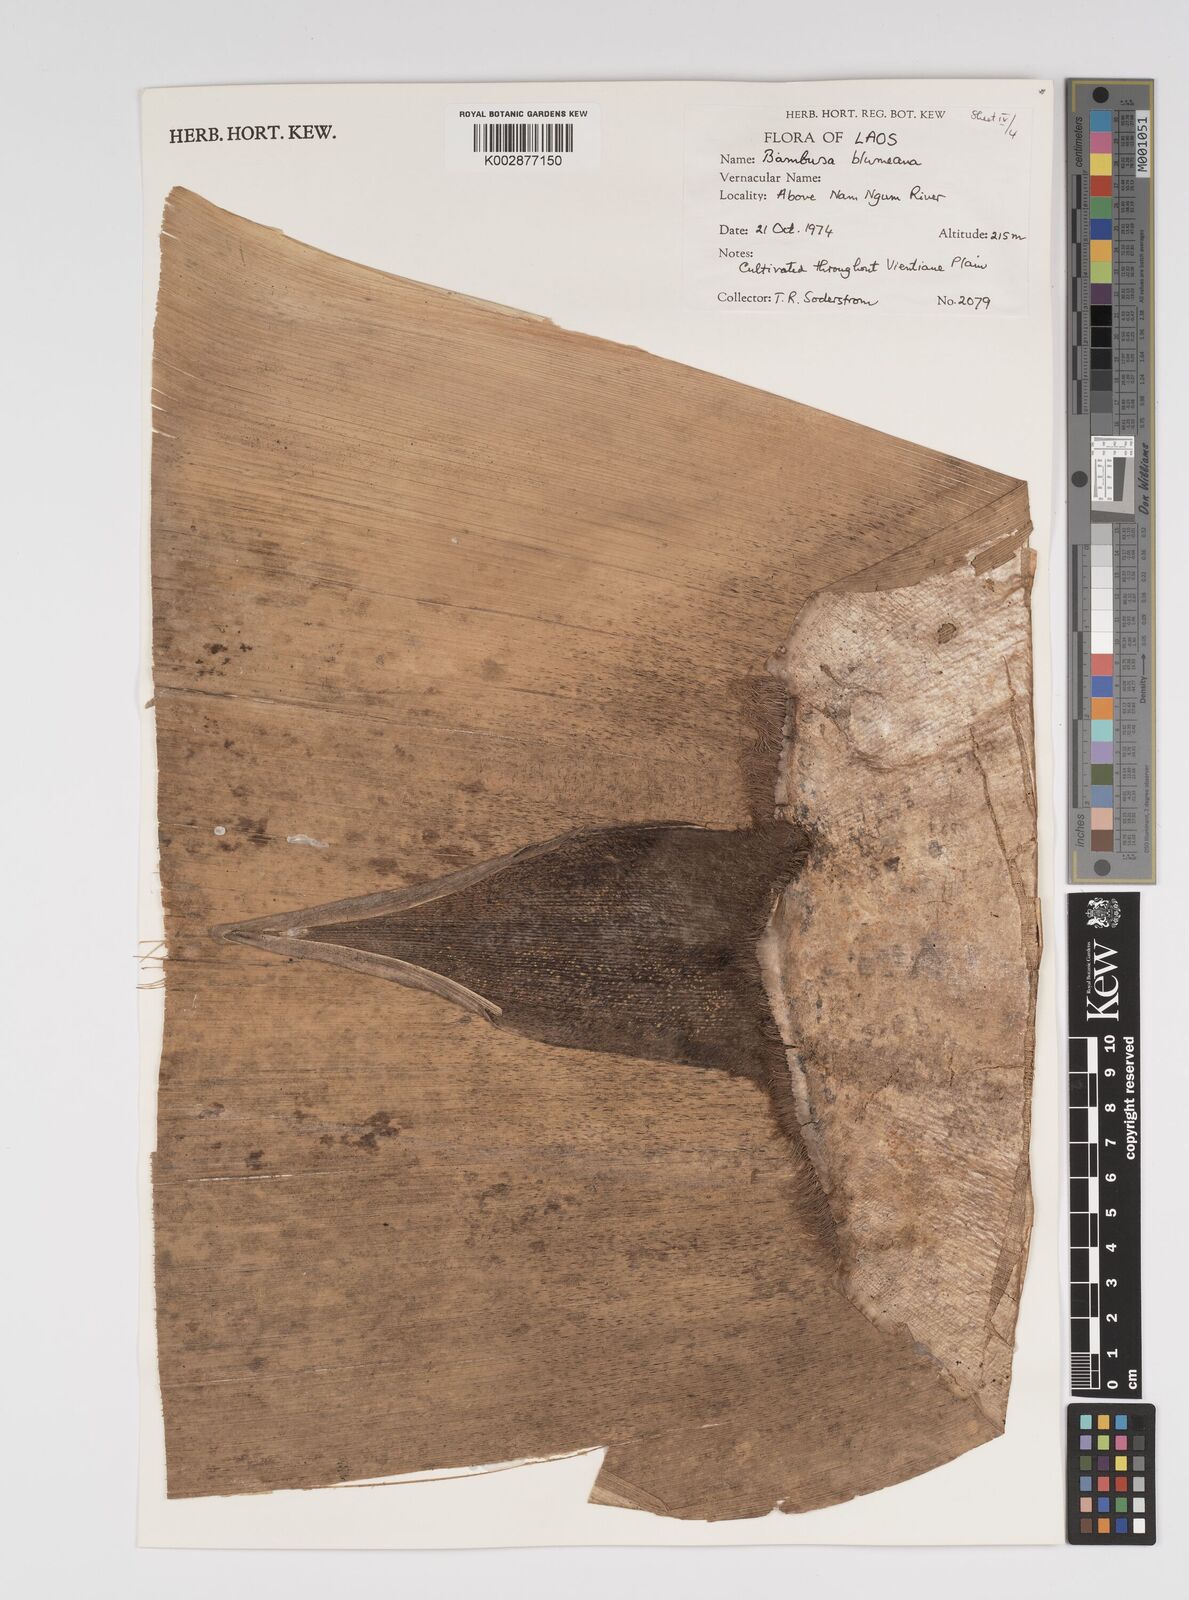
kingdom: Plantae
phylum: Tracheophyta
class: Liliopsida
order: Poales
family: Poaceae
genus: Bambusa
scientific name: Bambusa
